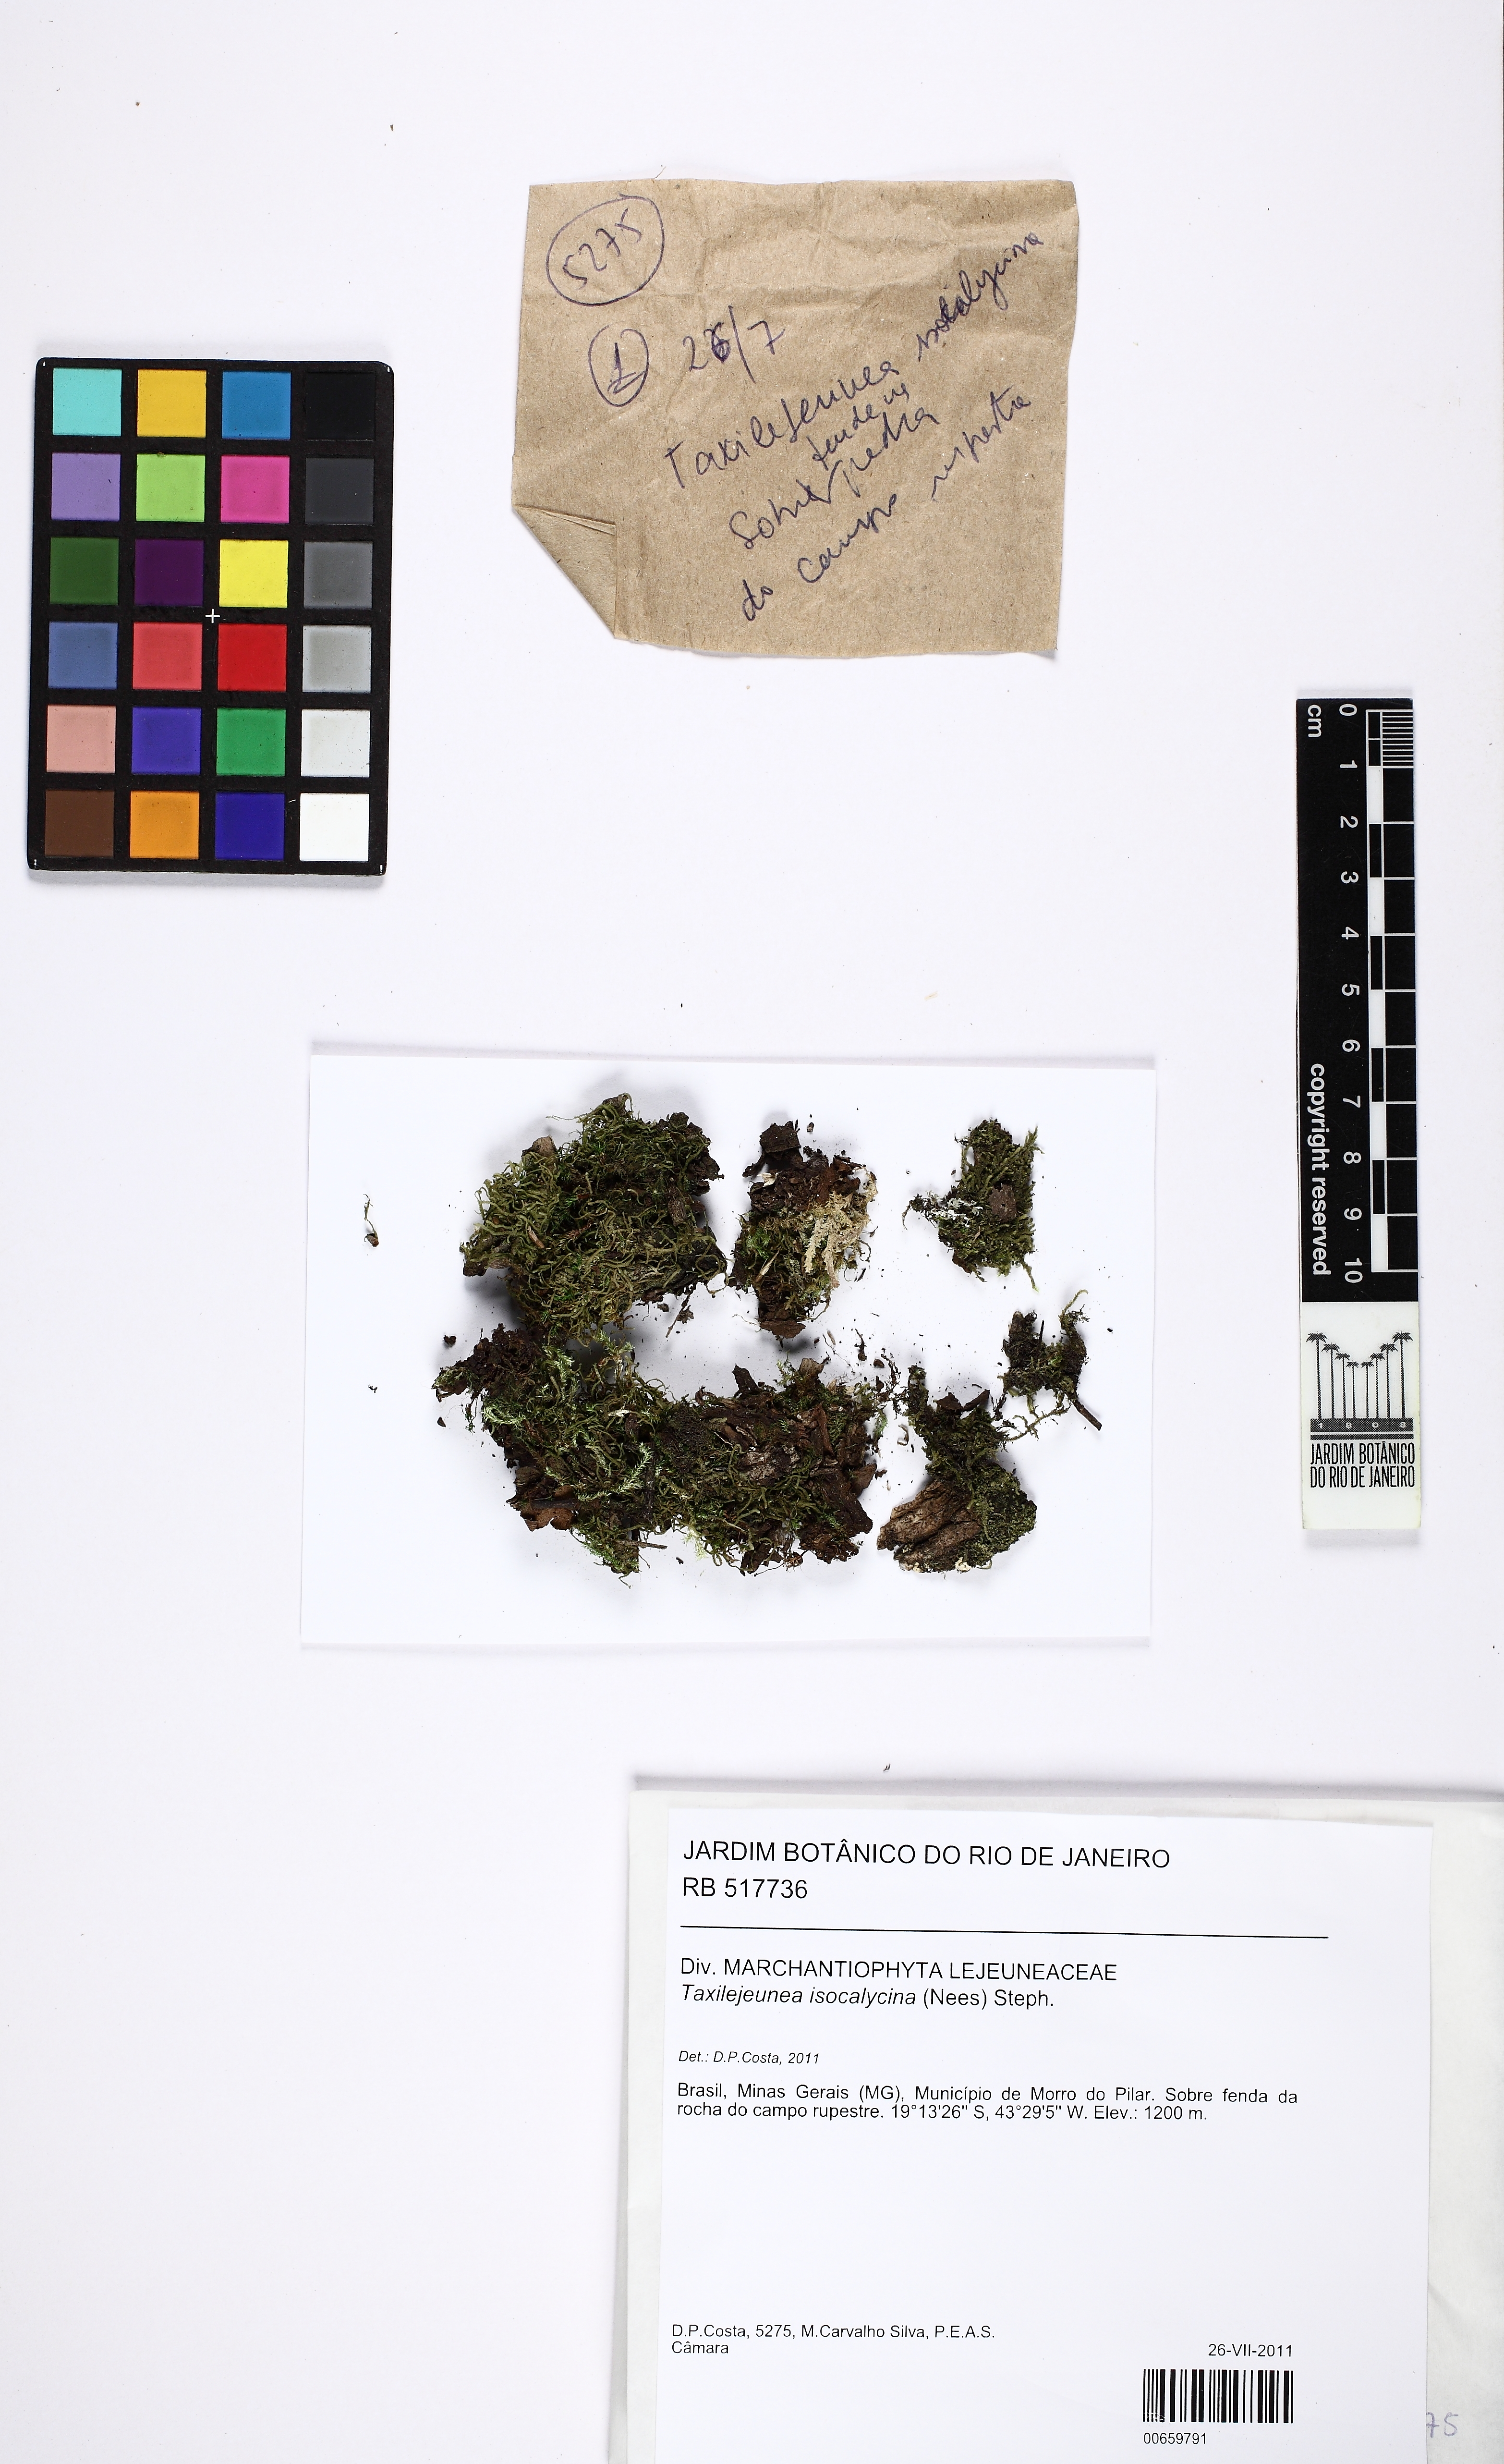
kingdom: Plantae
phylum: Marchantiophyta
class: Jungermanniopsida
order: Porellales
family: Lejeuneaceae
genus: Lejeunea
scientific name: Lejeunea serpillifolioides
